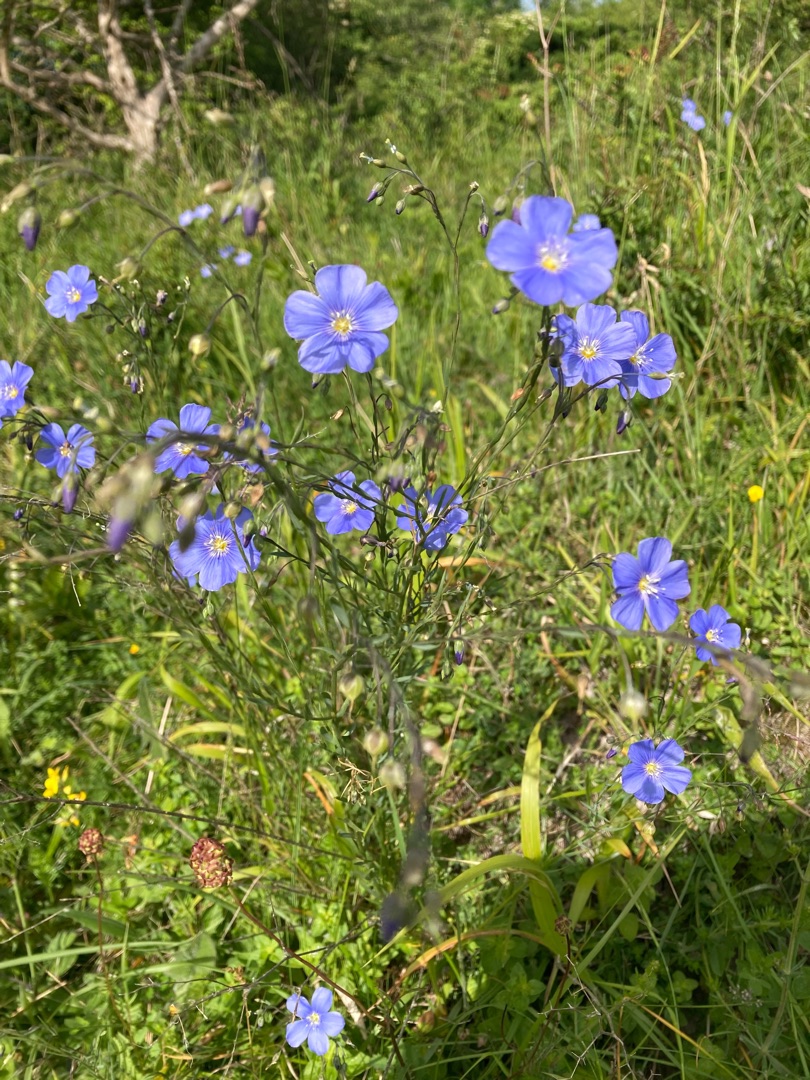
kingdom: Plantae
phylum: Tracheophyta
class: Magnoliopsida
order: Malpighiales
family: Linaceae
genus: Linum
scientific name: Linum austriacum
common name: Østrigsk hør
